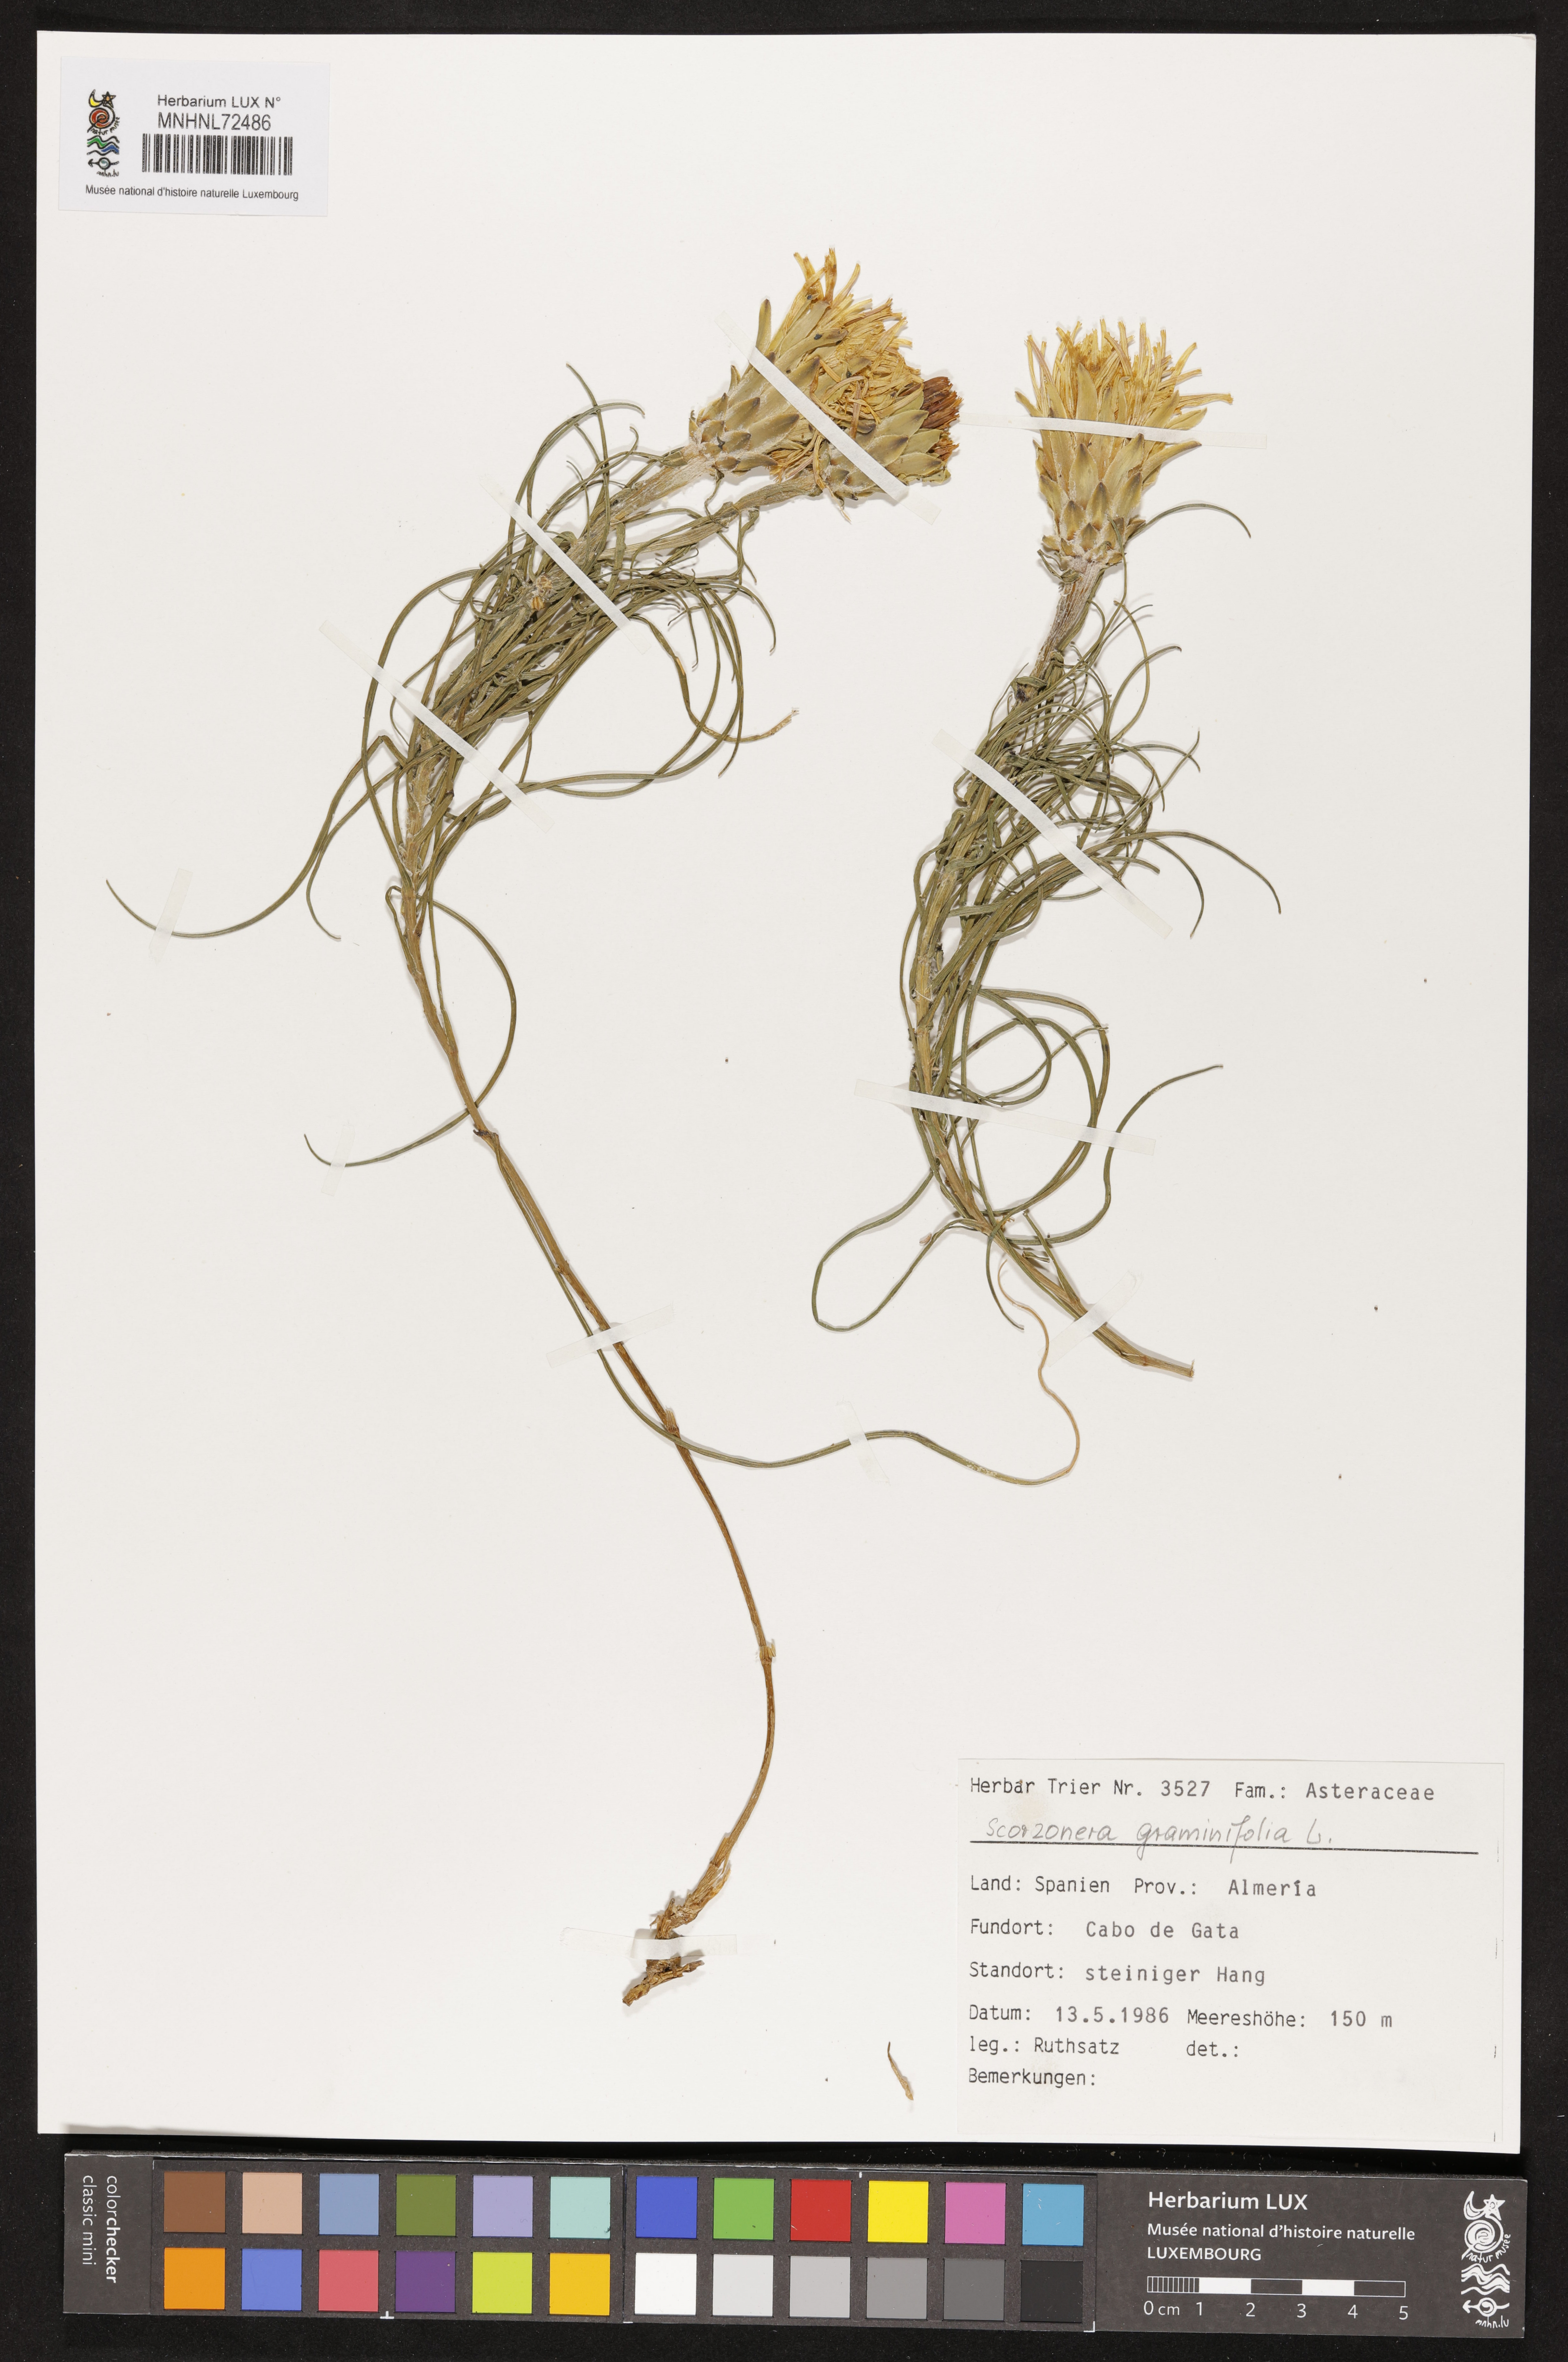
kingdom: Plantae
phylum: Tracheophyta
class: Magnoliopsida
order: Asterales
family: Asteraceae
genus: Scorzonera
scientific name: Scorzonera graminifolia
